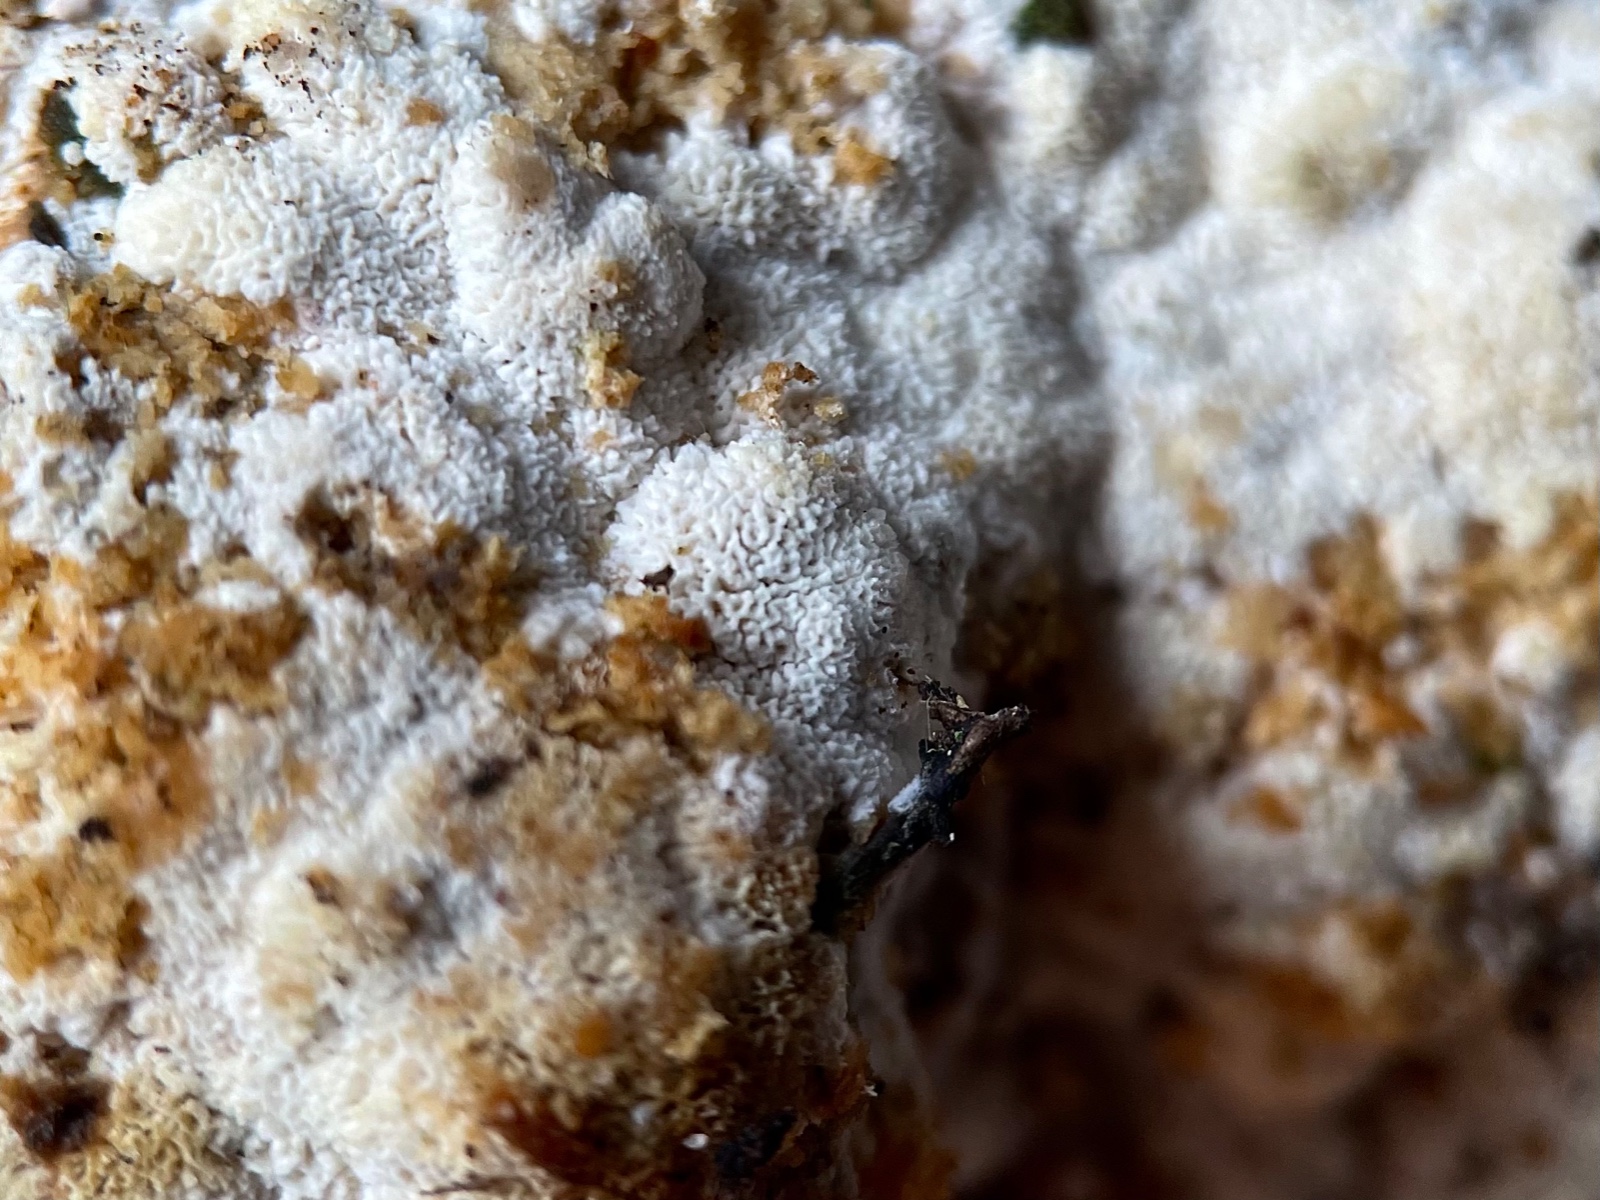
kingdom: Fungi
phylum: Basidiomycota
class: Agaricomycetes
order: Corticiales
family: Corticiaceae
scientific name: Corticiaceae
